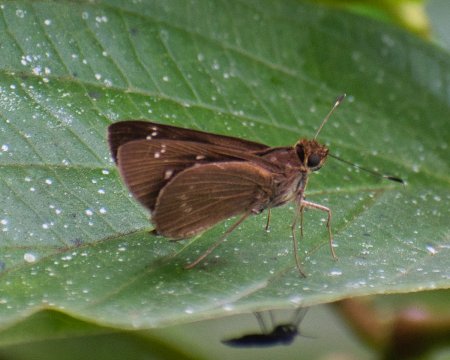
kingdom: Animalia
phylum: Arthropoda
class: Insecta
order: Lepidoptera
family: Hesperiidae
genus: Monza
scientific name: Monza
